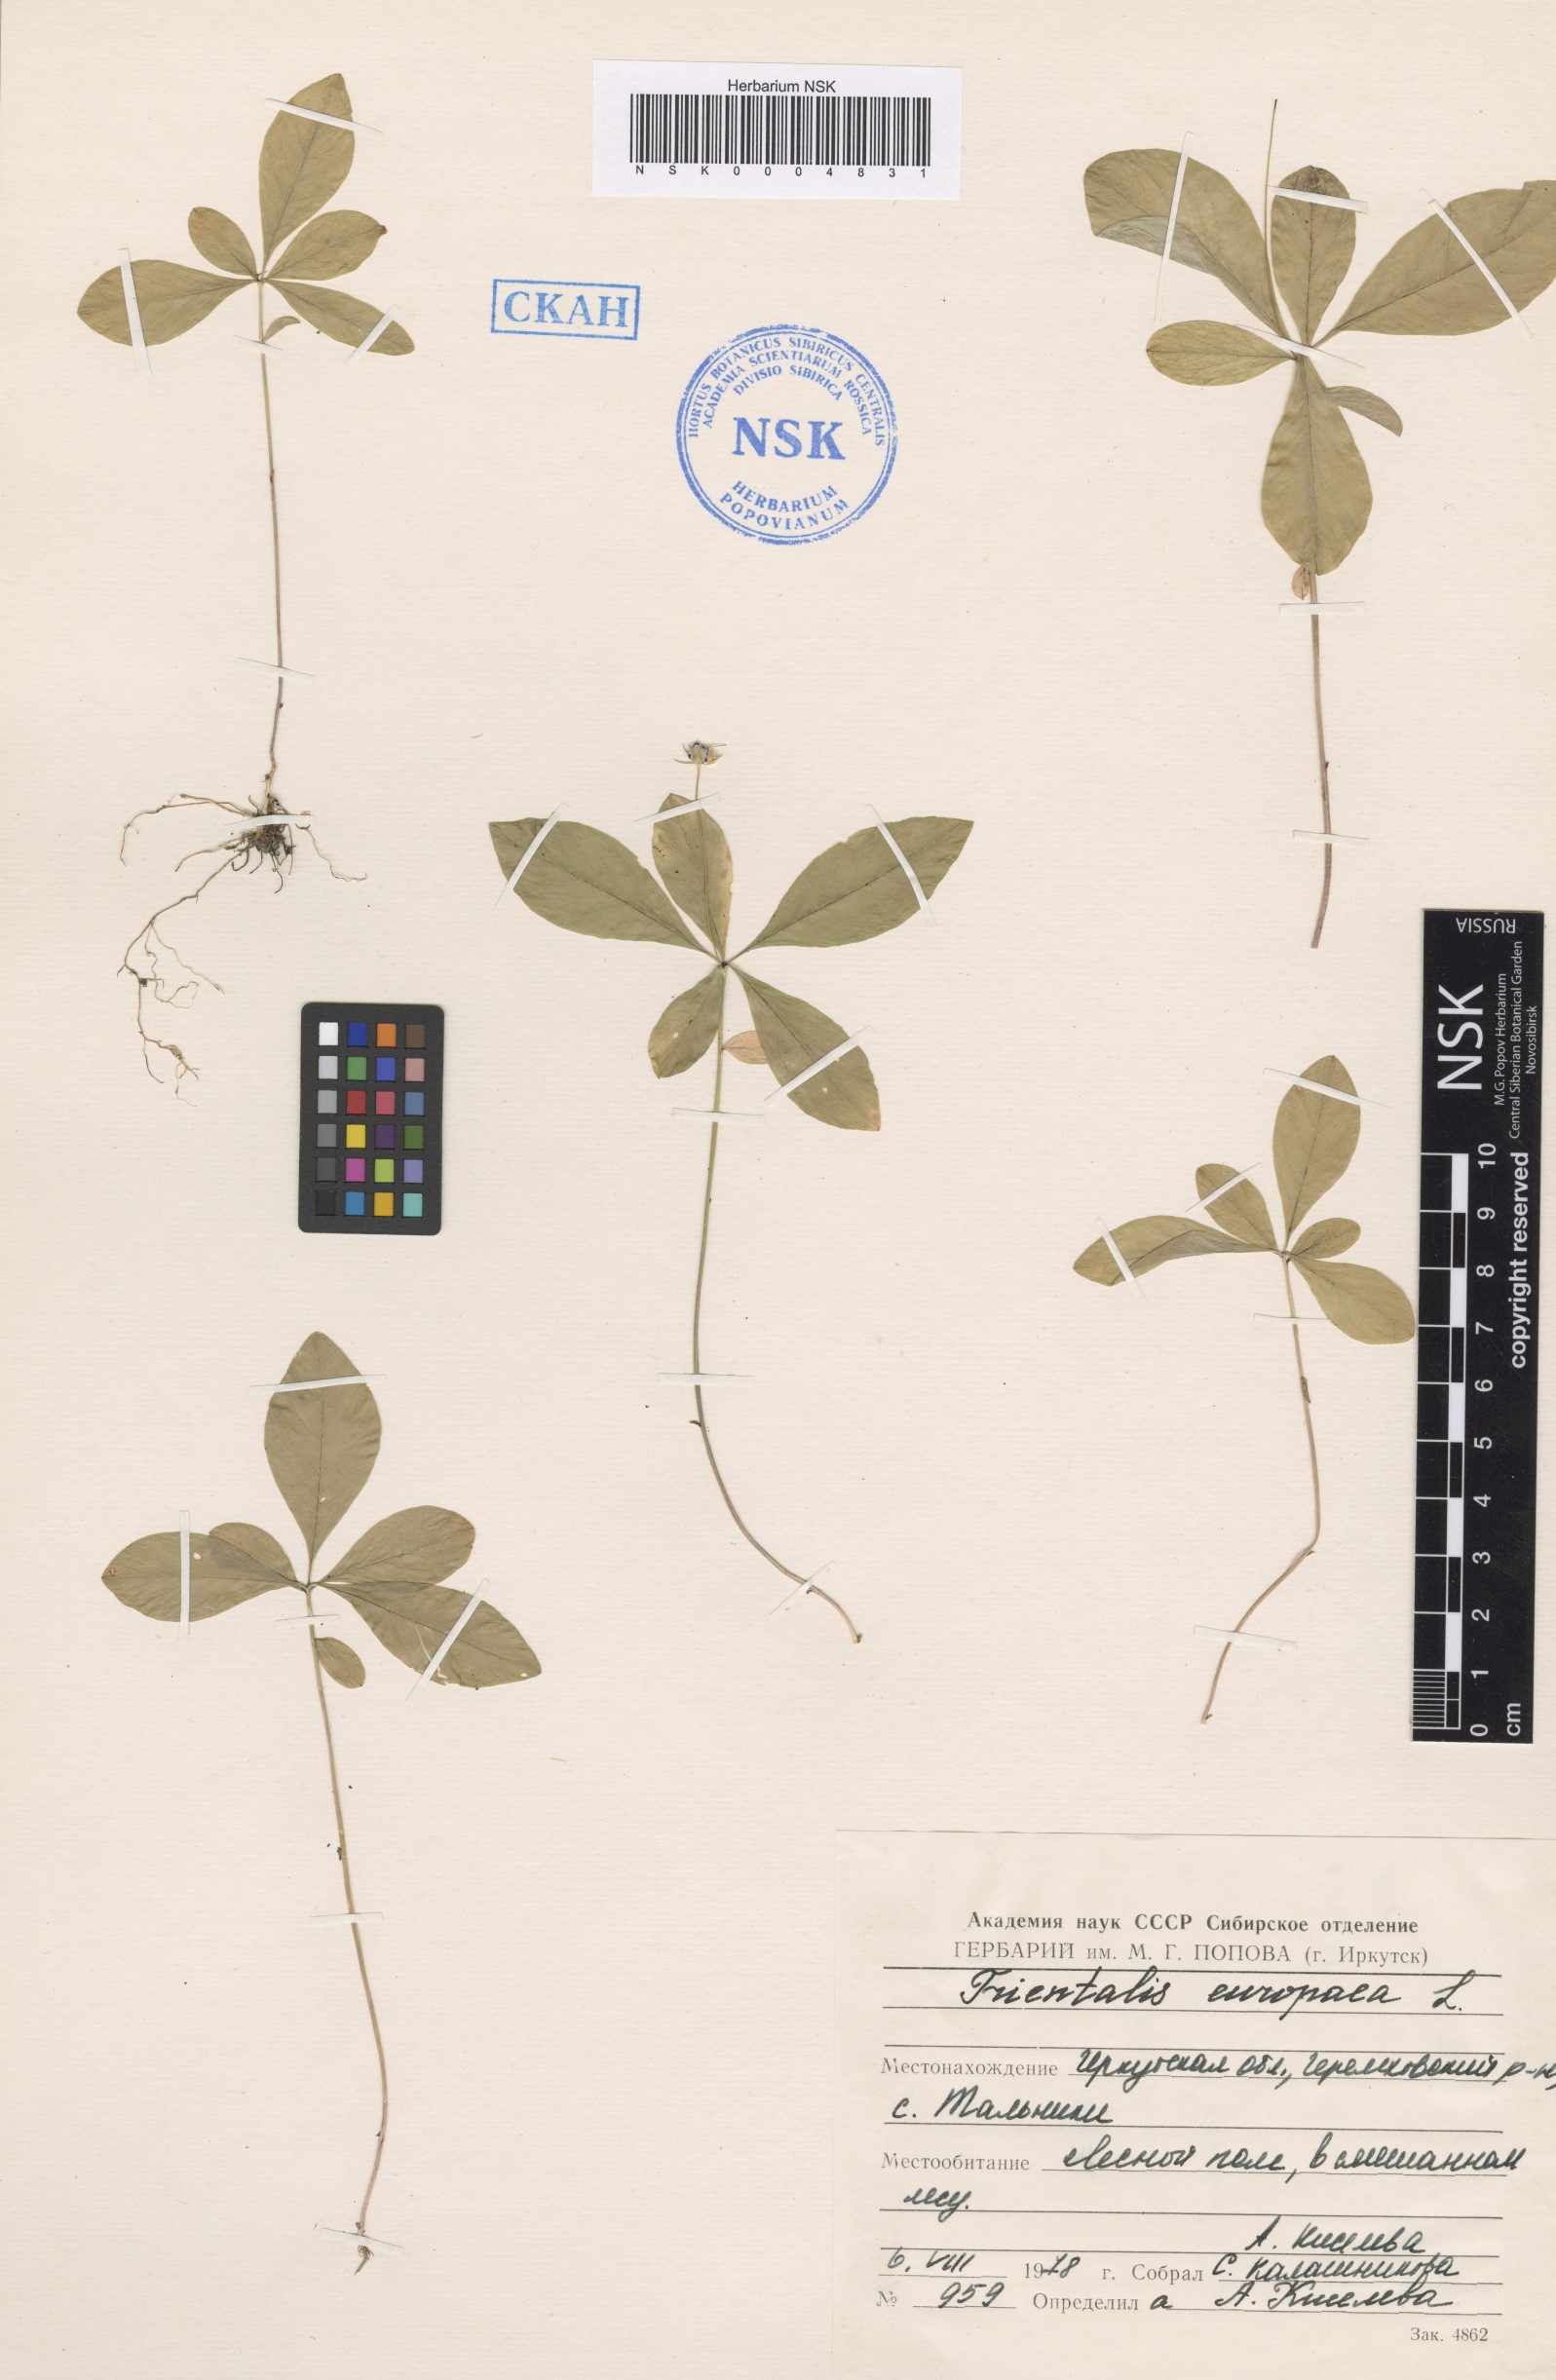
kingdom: Plantae
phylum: Tracheophyta
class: Magnoliopsida
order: Ericales
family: Primulaceae
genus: Lysimachia
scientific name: Lysimachia europaea
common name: Arctic starflower
